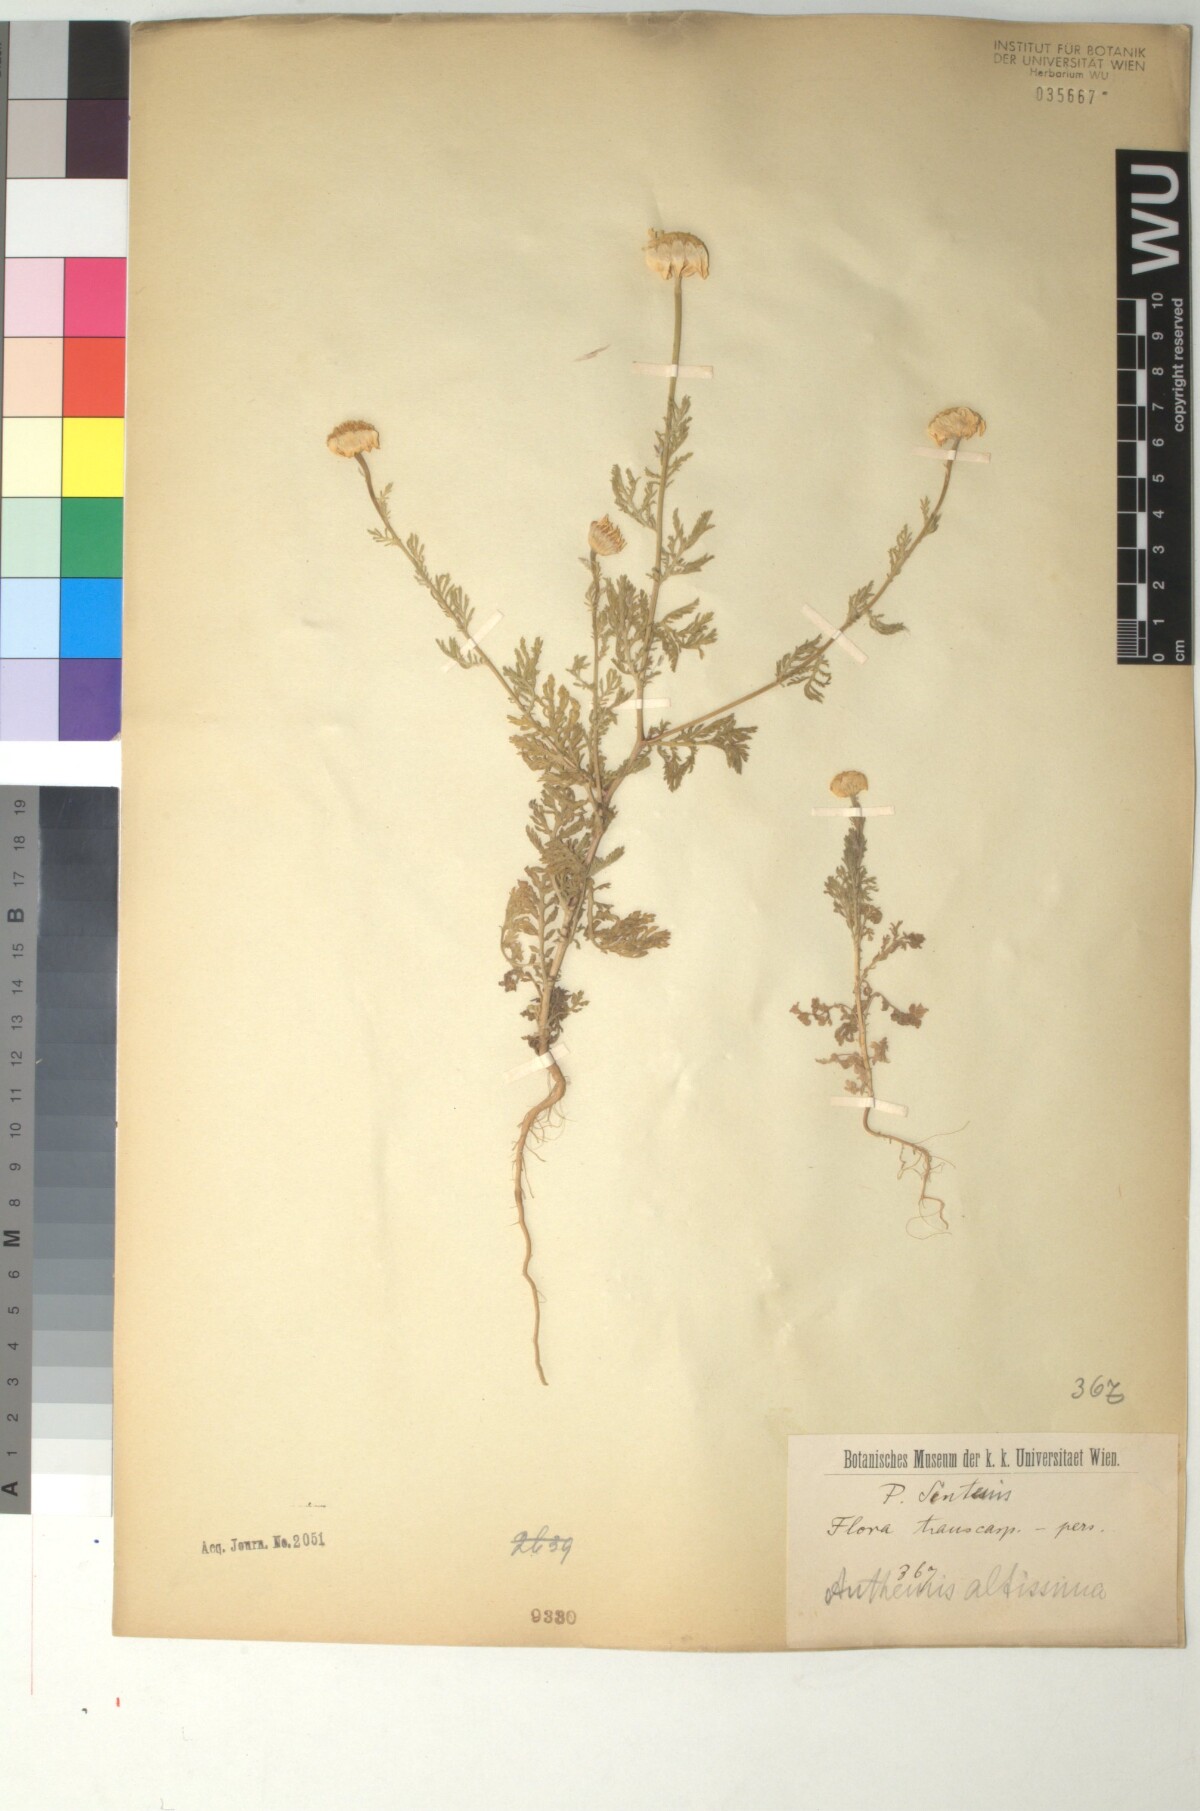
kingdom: Plantae
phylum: Tracheophyta
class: Magnoliopsida
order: Asterales
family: Asteraceae
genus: Cota
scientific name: Cota altissima
